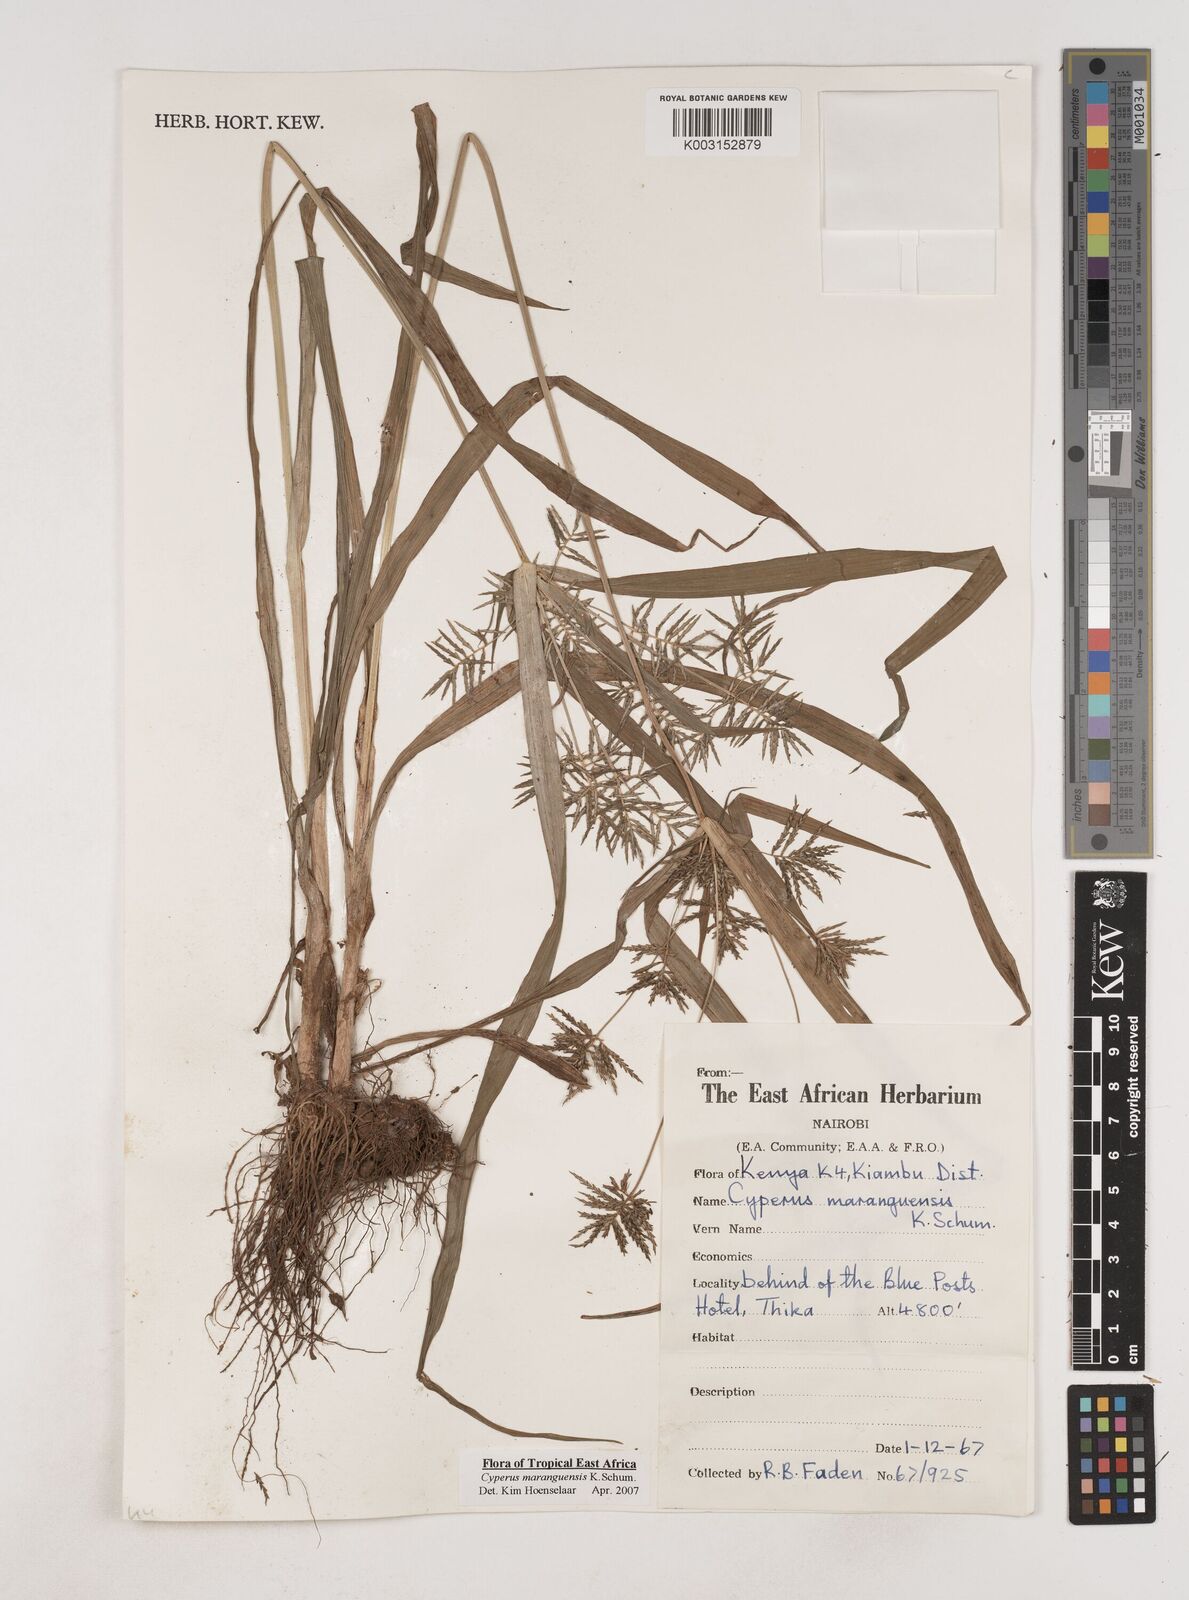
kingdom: Plantae
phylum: Tracheophyta
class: Liliopsida
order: Poales
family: Cyperaceae
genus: Cyperus
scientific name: Cyperus maranguensis
